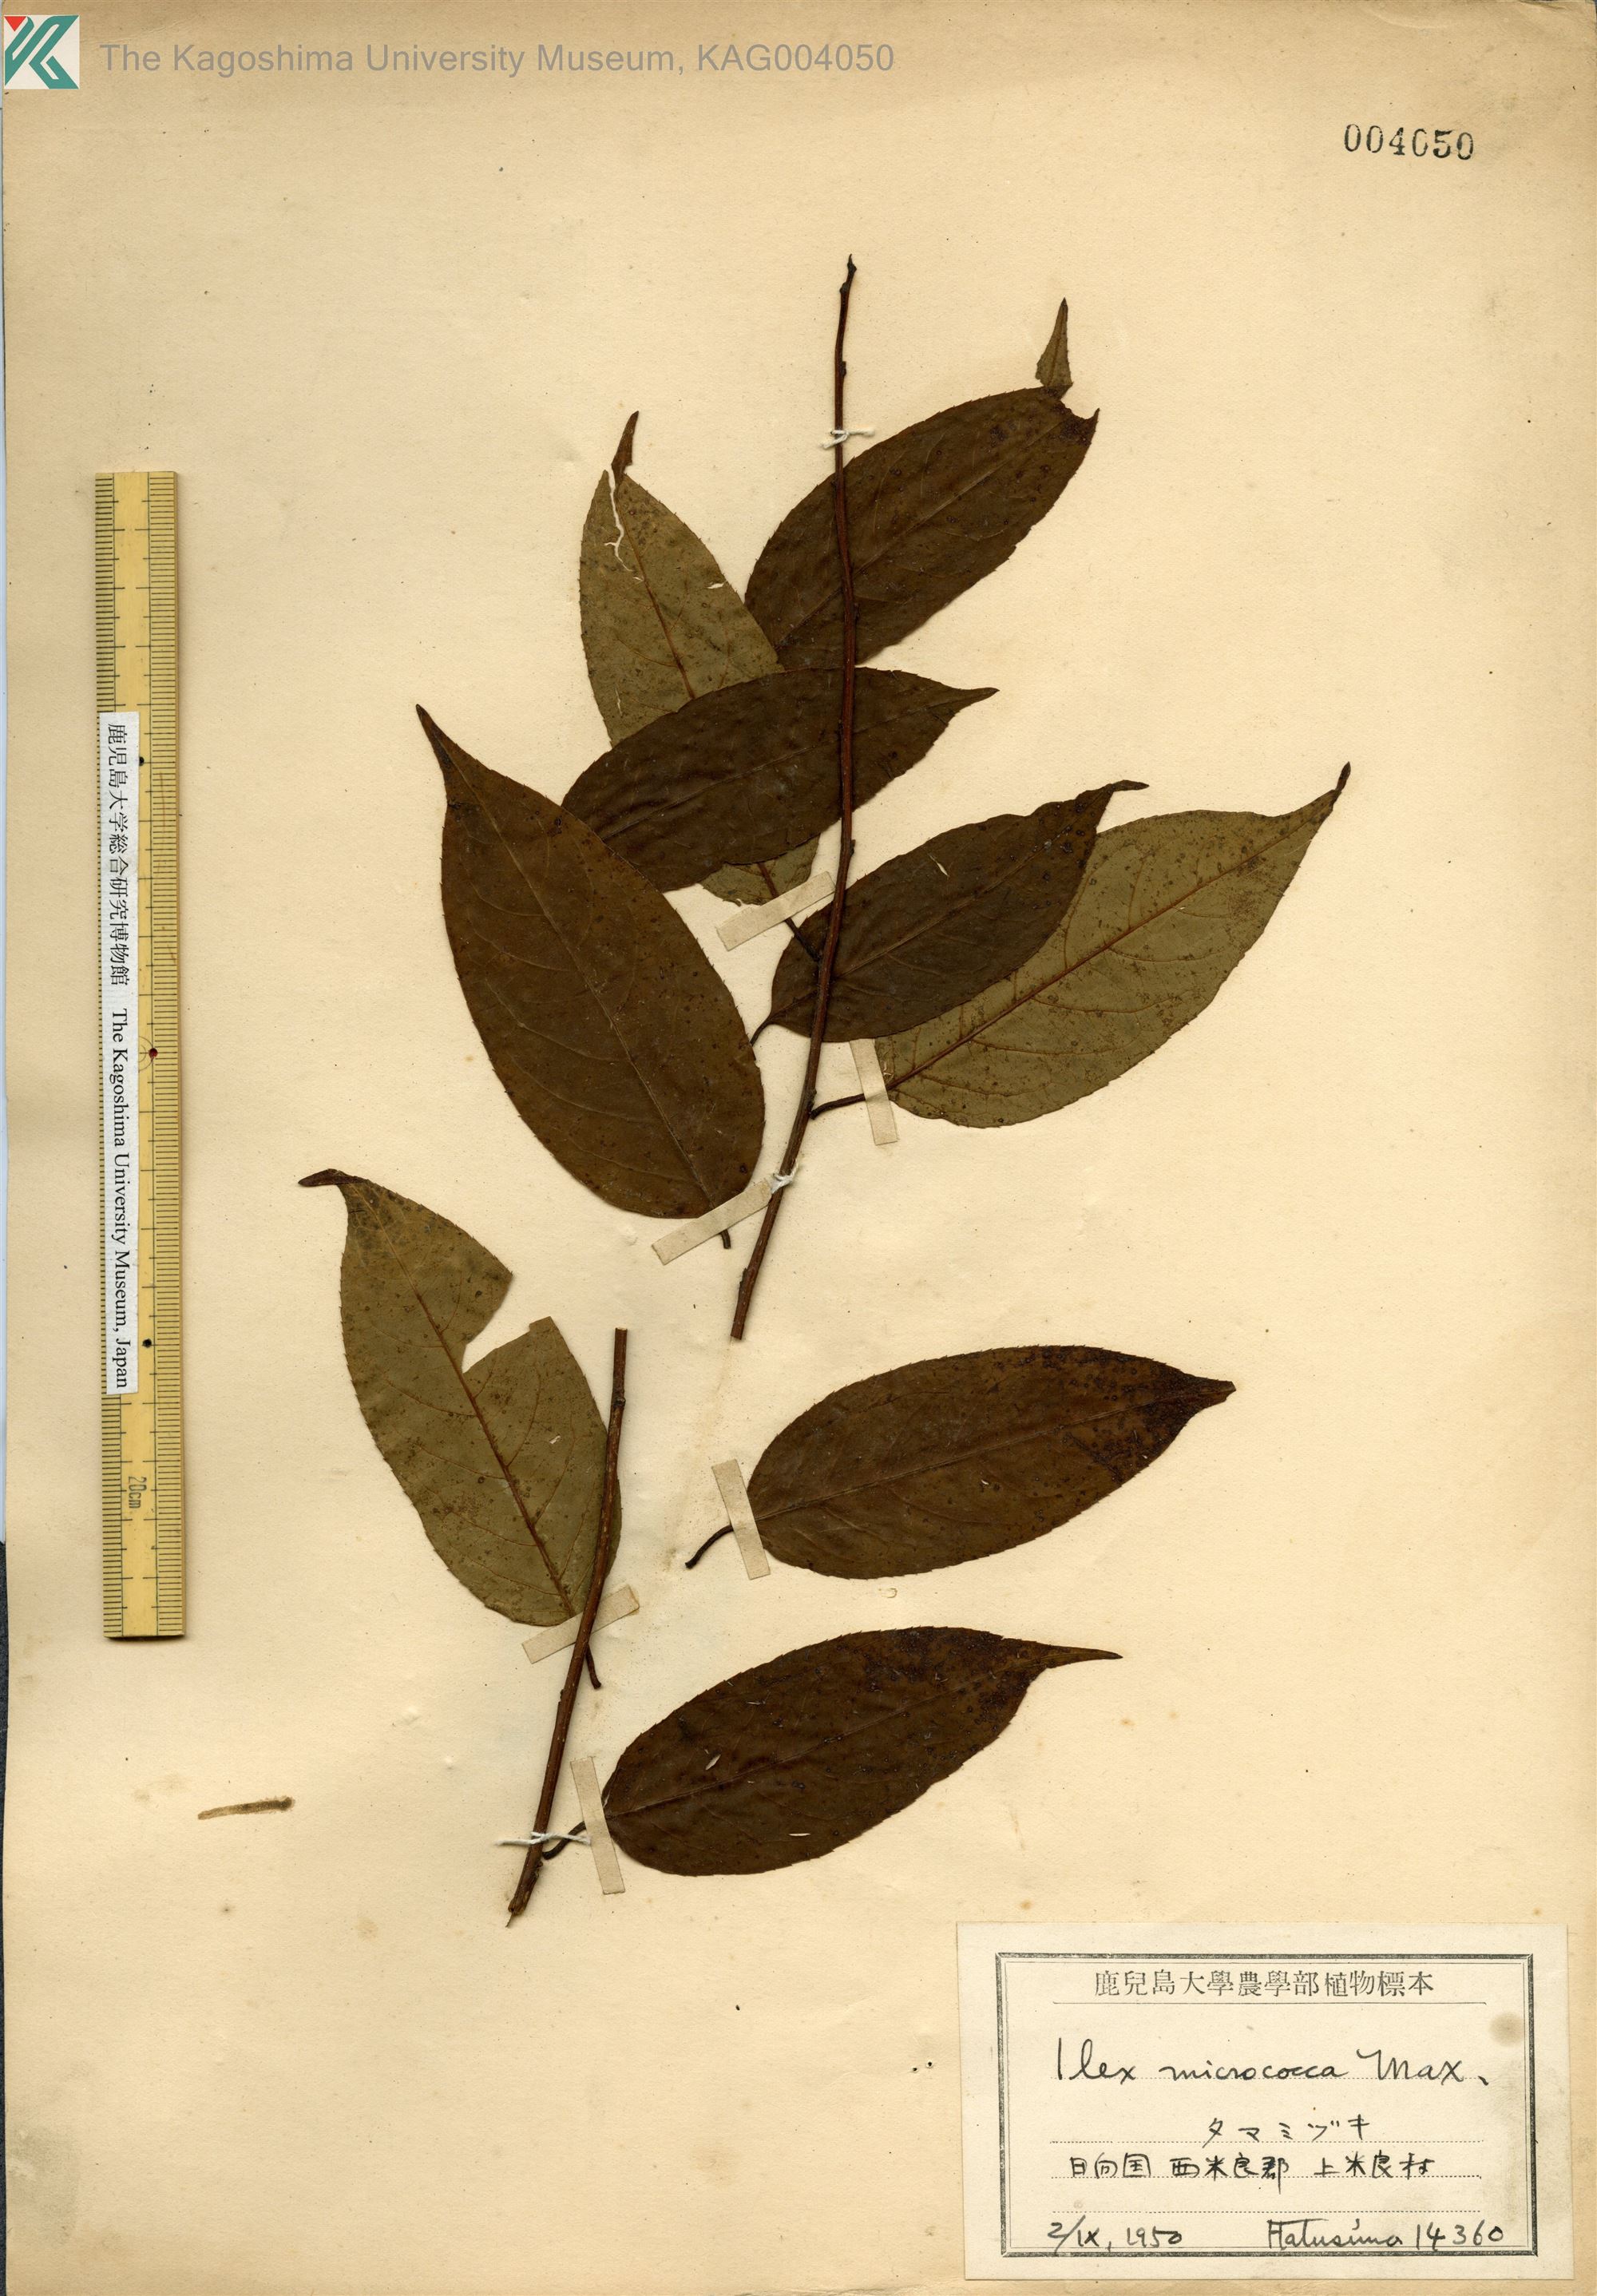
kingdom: Plantae
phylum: Tracheophyta
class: Magnoliopsida
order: Aquifoliales
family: Aquifoliaceae
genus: Ilex
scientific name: Ilex rotunda
